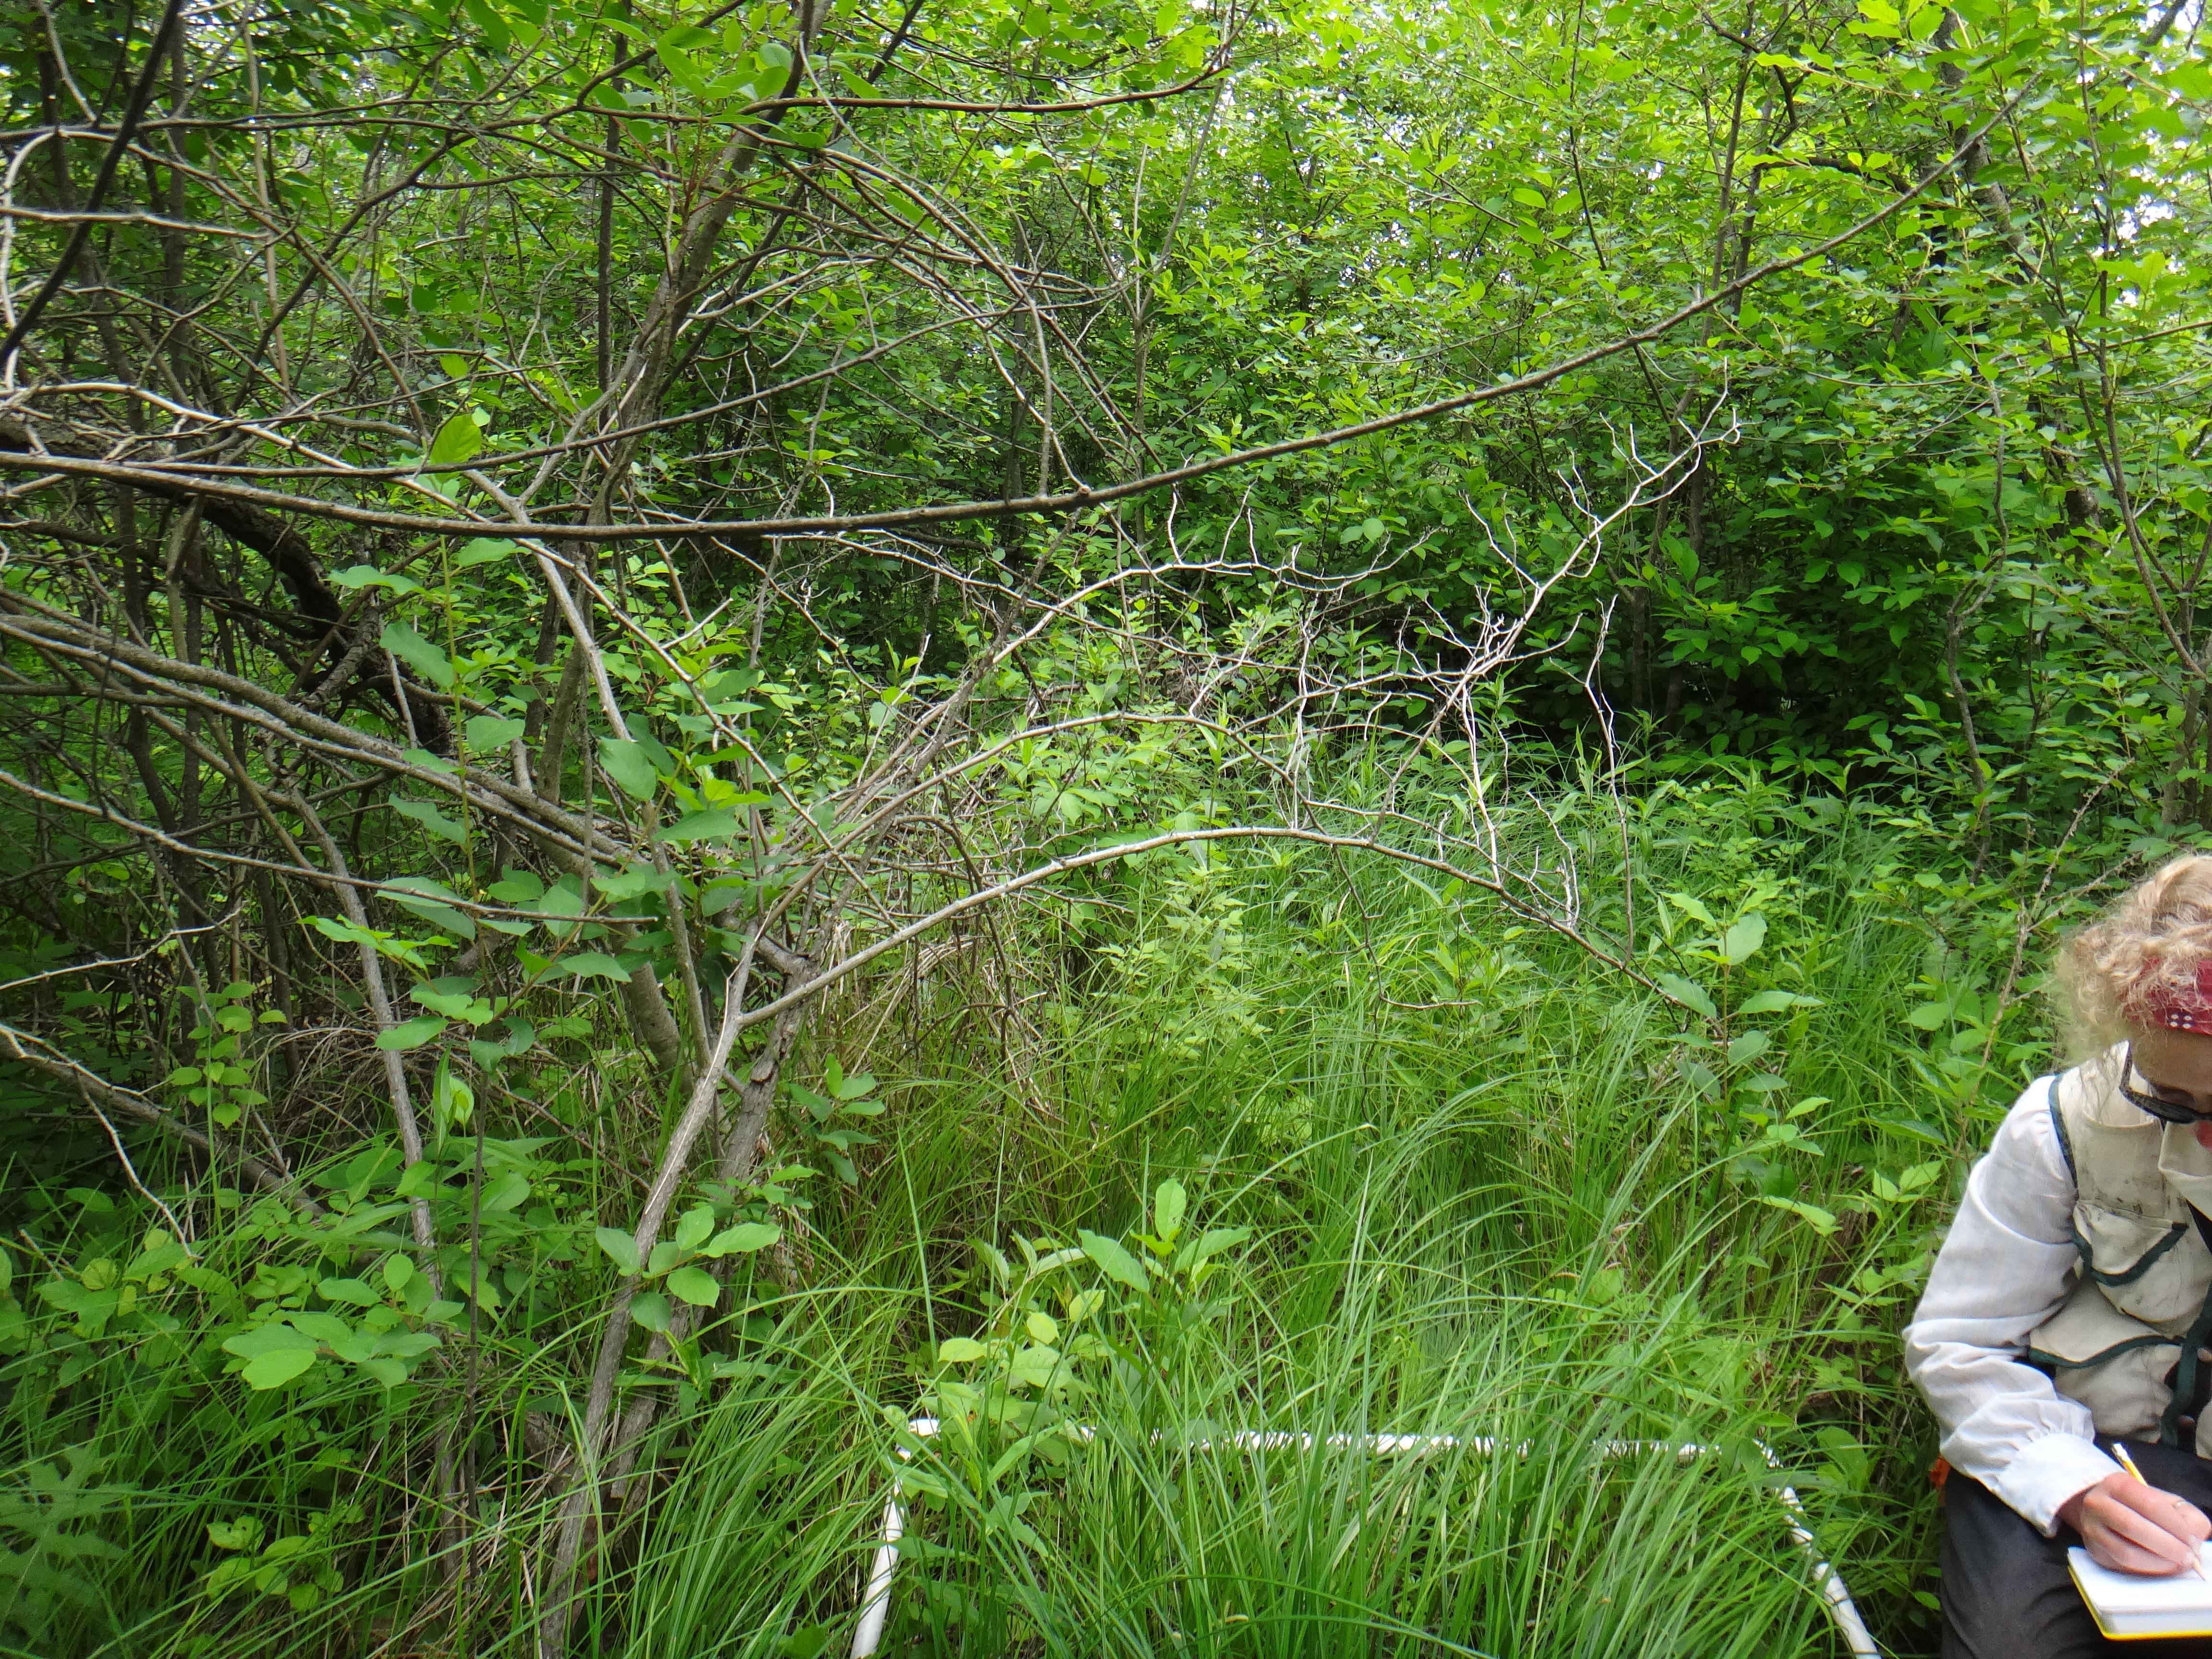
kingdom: Plantae
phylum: Tracheophyta
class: Magnoliopsida
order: Asterales
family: Asteraceae
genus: Symphyotrichum
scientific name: Symphyotrichum novae-angliae
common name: Michaelmas daisy
